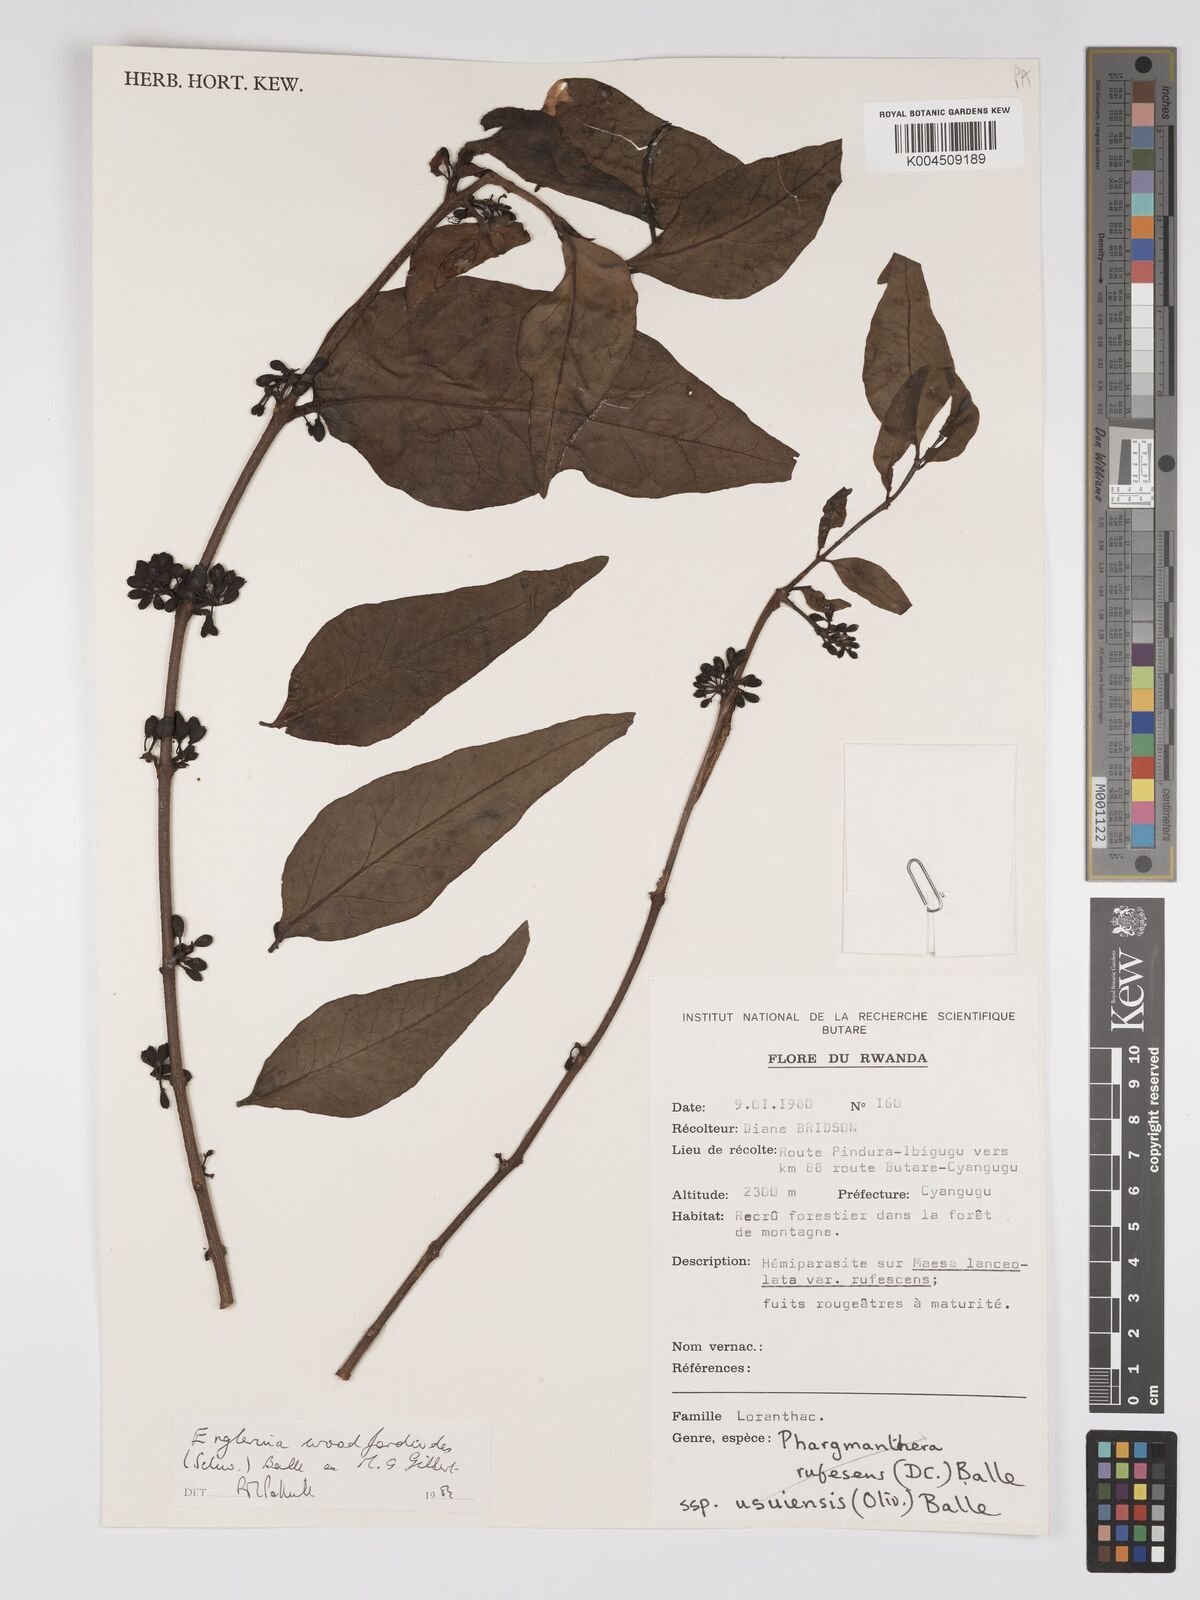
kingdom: Plantae
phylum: Tracheophyta
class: Magnoliopsida
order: Santalales
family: Loranthaceae
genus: Englerina
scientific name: Englerina woodfordioides
